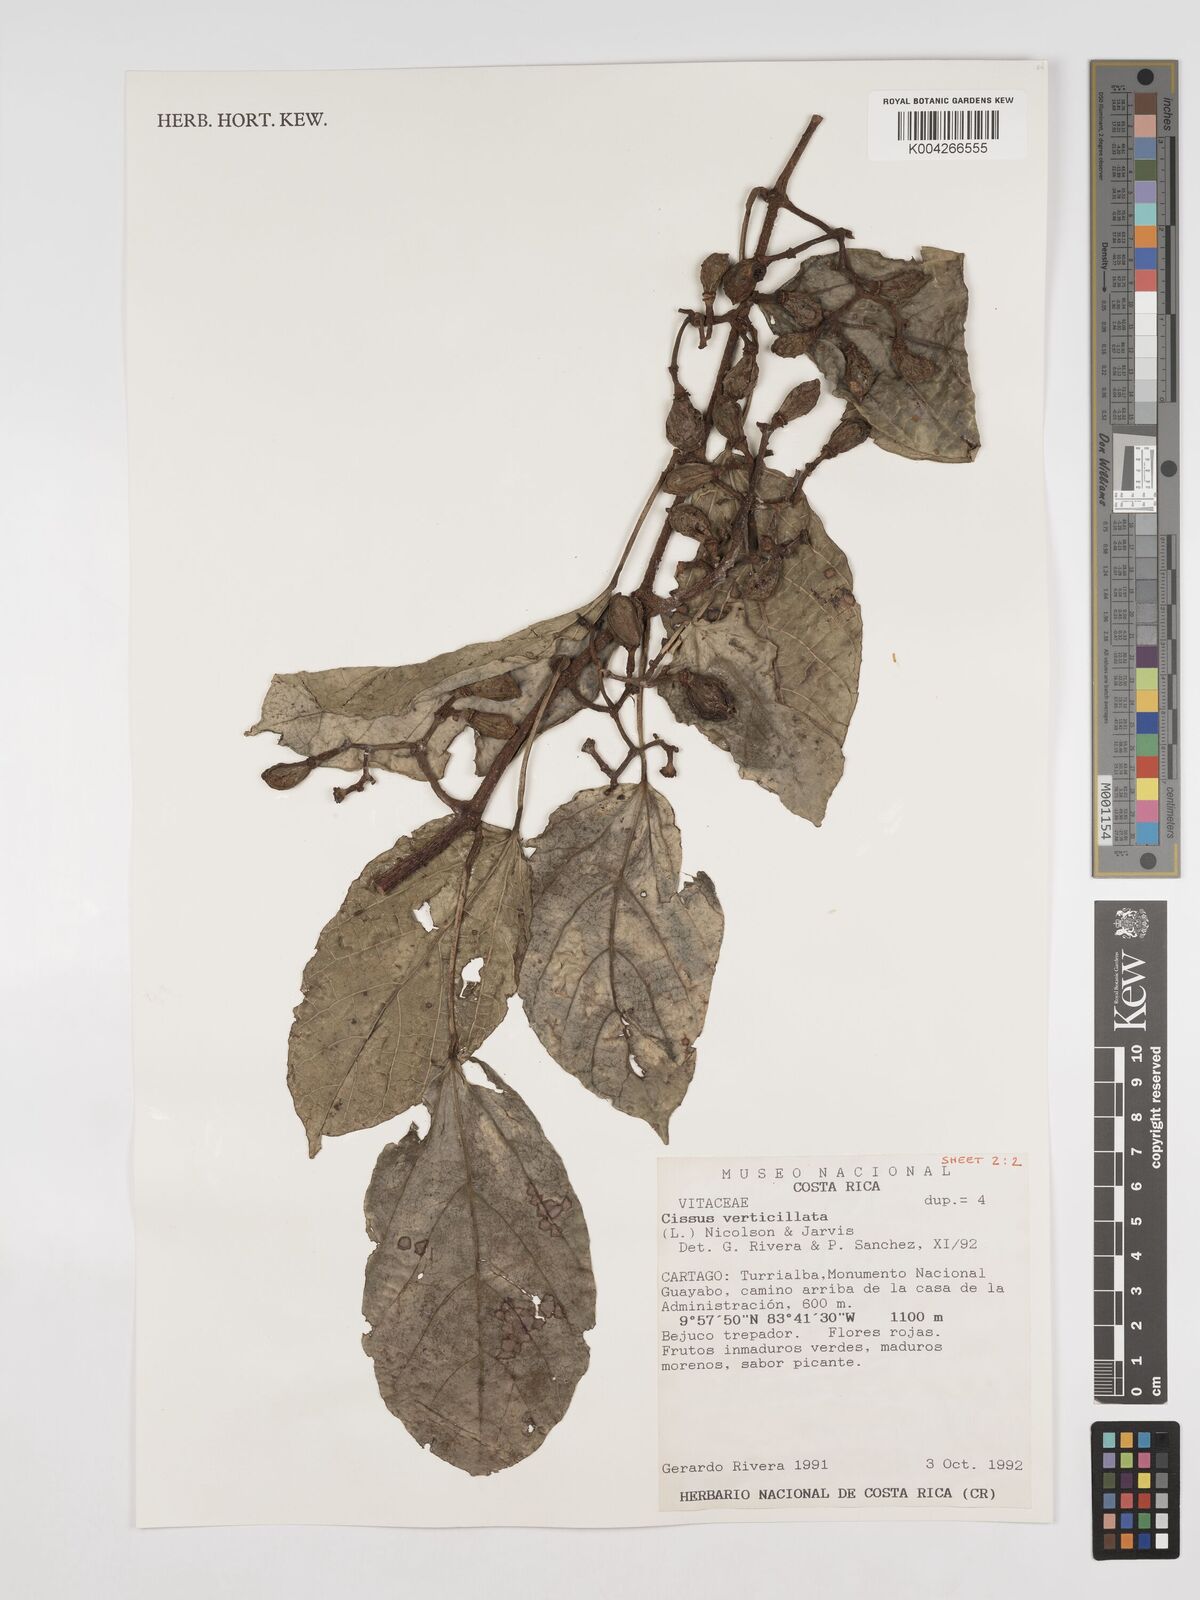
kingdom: Plantae
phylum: Tracheophyta
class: Magnoliopsida
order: Vitales
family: Vitaceae
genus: Cissus
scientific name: Cissus verticillata
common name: Princess vine
